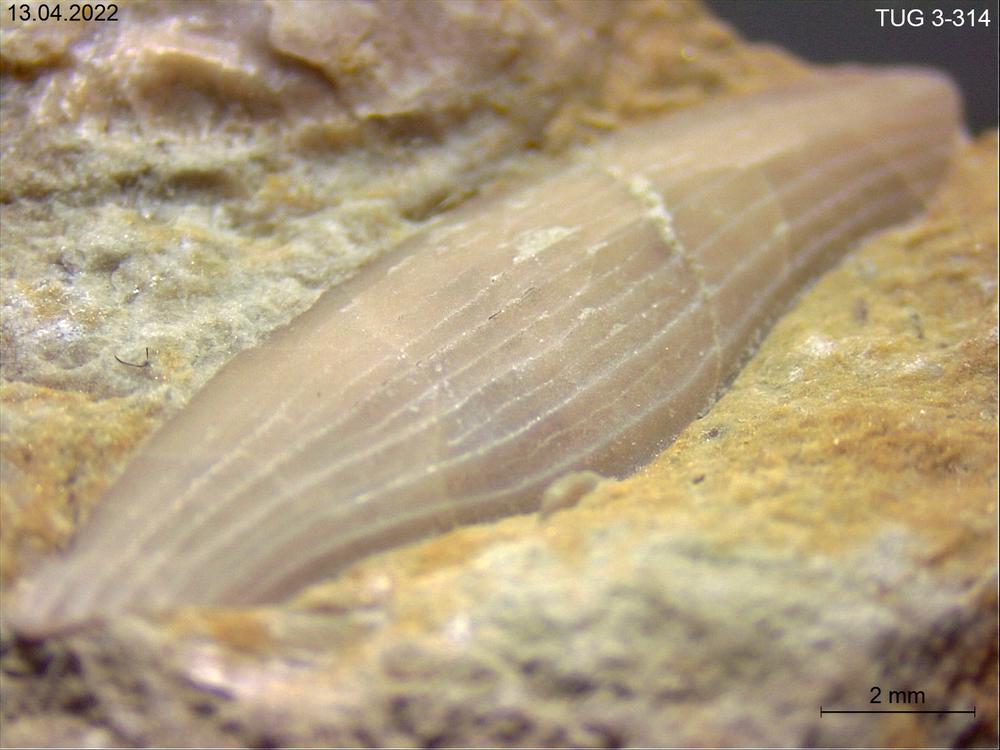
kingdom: Animalia
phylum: Arthropoda
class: Trilobita
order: Phacopida
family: Hammatocnemidae
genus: Cyrtometopus
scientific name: Cyrtometopus
